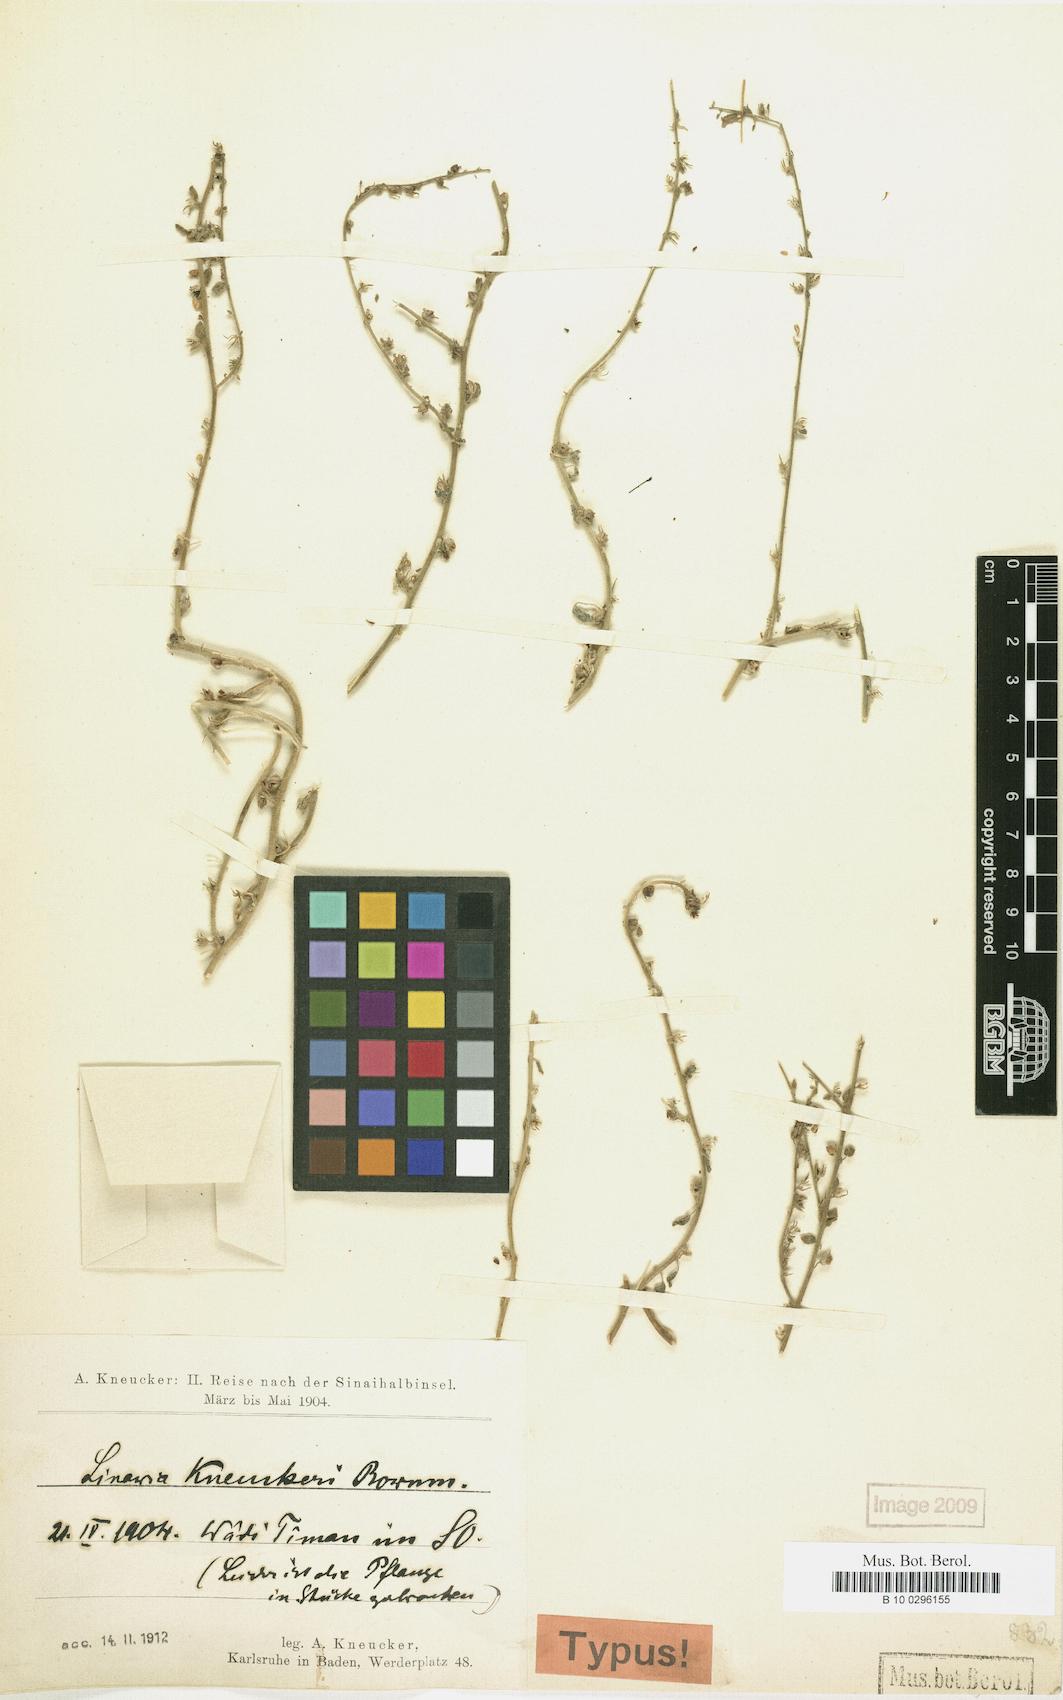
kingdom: Plantae
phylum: Tracheophyta
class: Magnoliopsida
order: Lamiales
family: Plantaginaceae
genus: Nanorrhinum
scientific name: Nanorrhinum acerbianum
